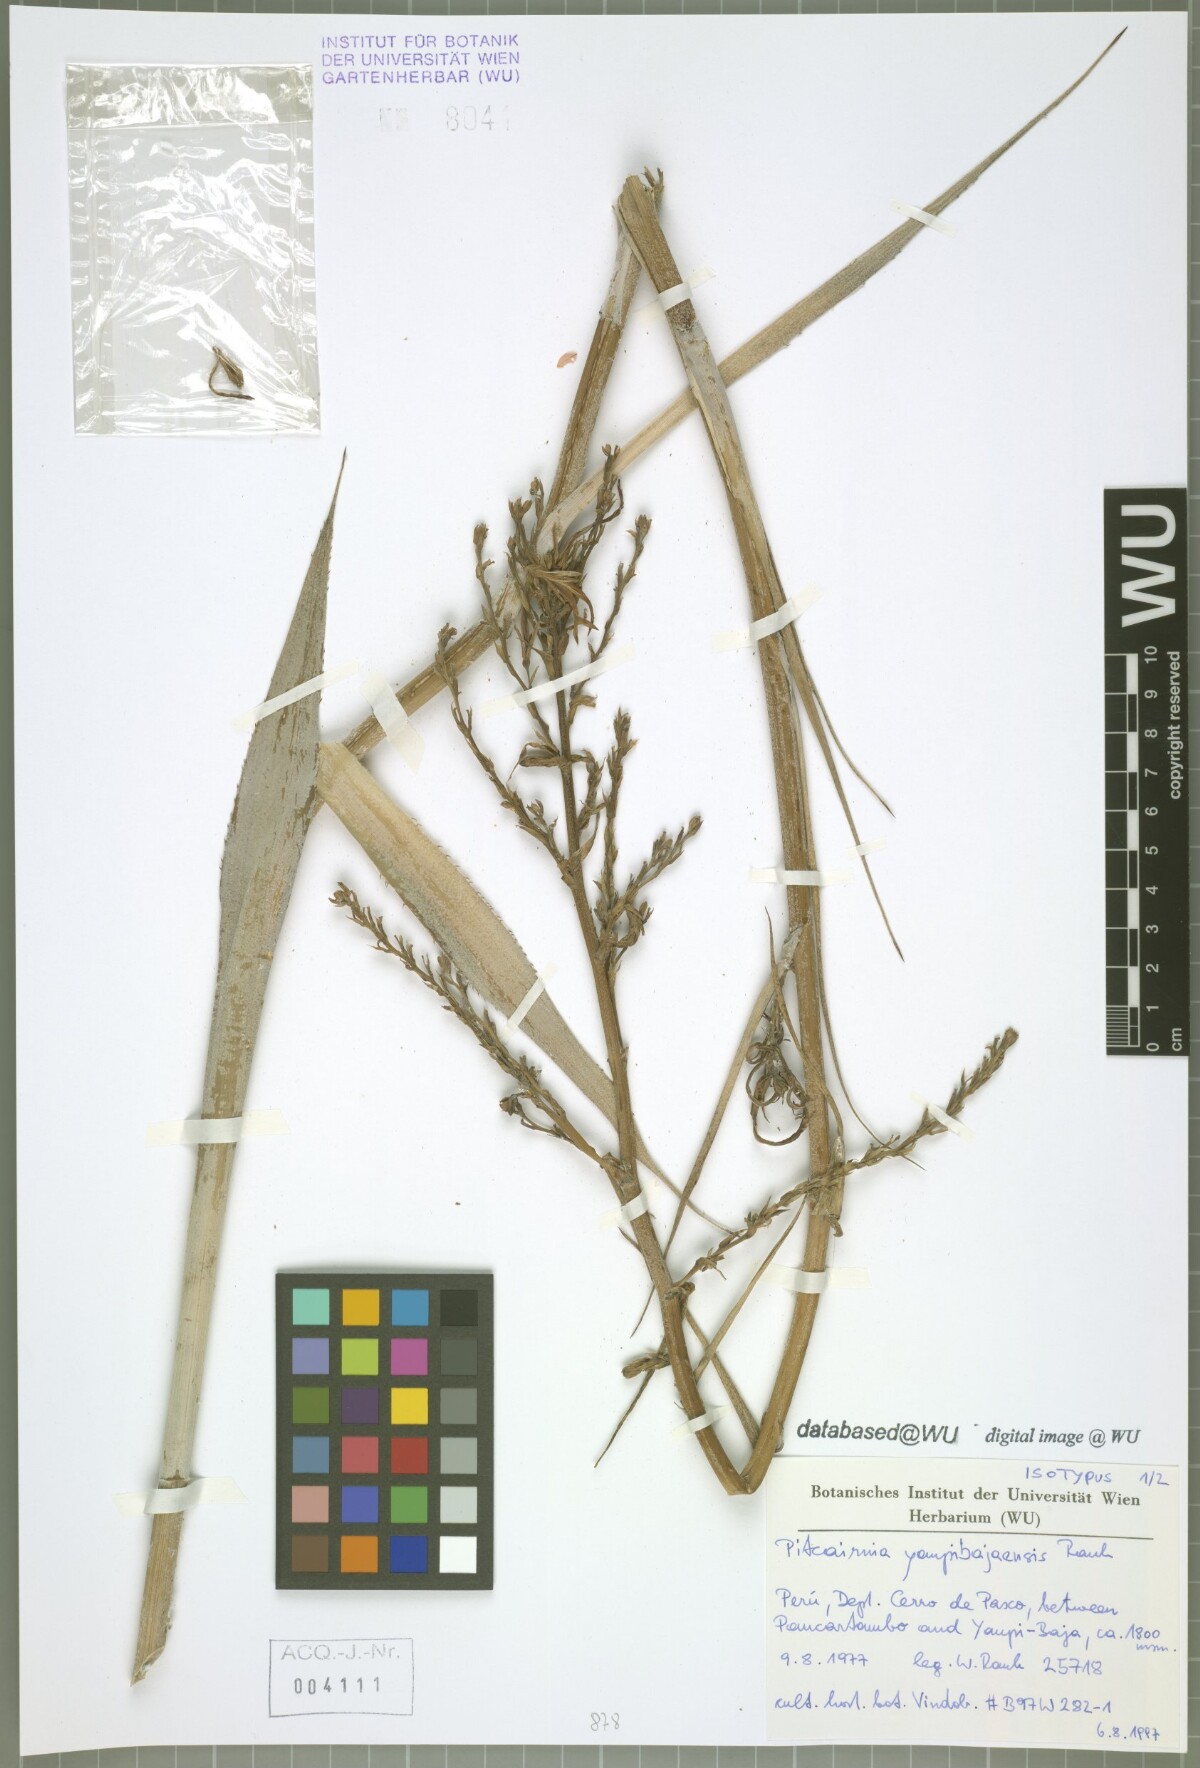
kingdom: Plantae
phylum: Tracheophyta
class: Liliopsida
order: Poales
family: Bromeliaceae
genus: Pitcairnia
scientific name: Pitcairnia yaupi-bajaensis
